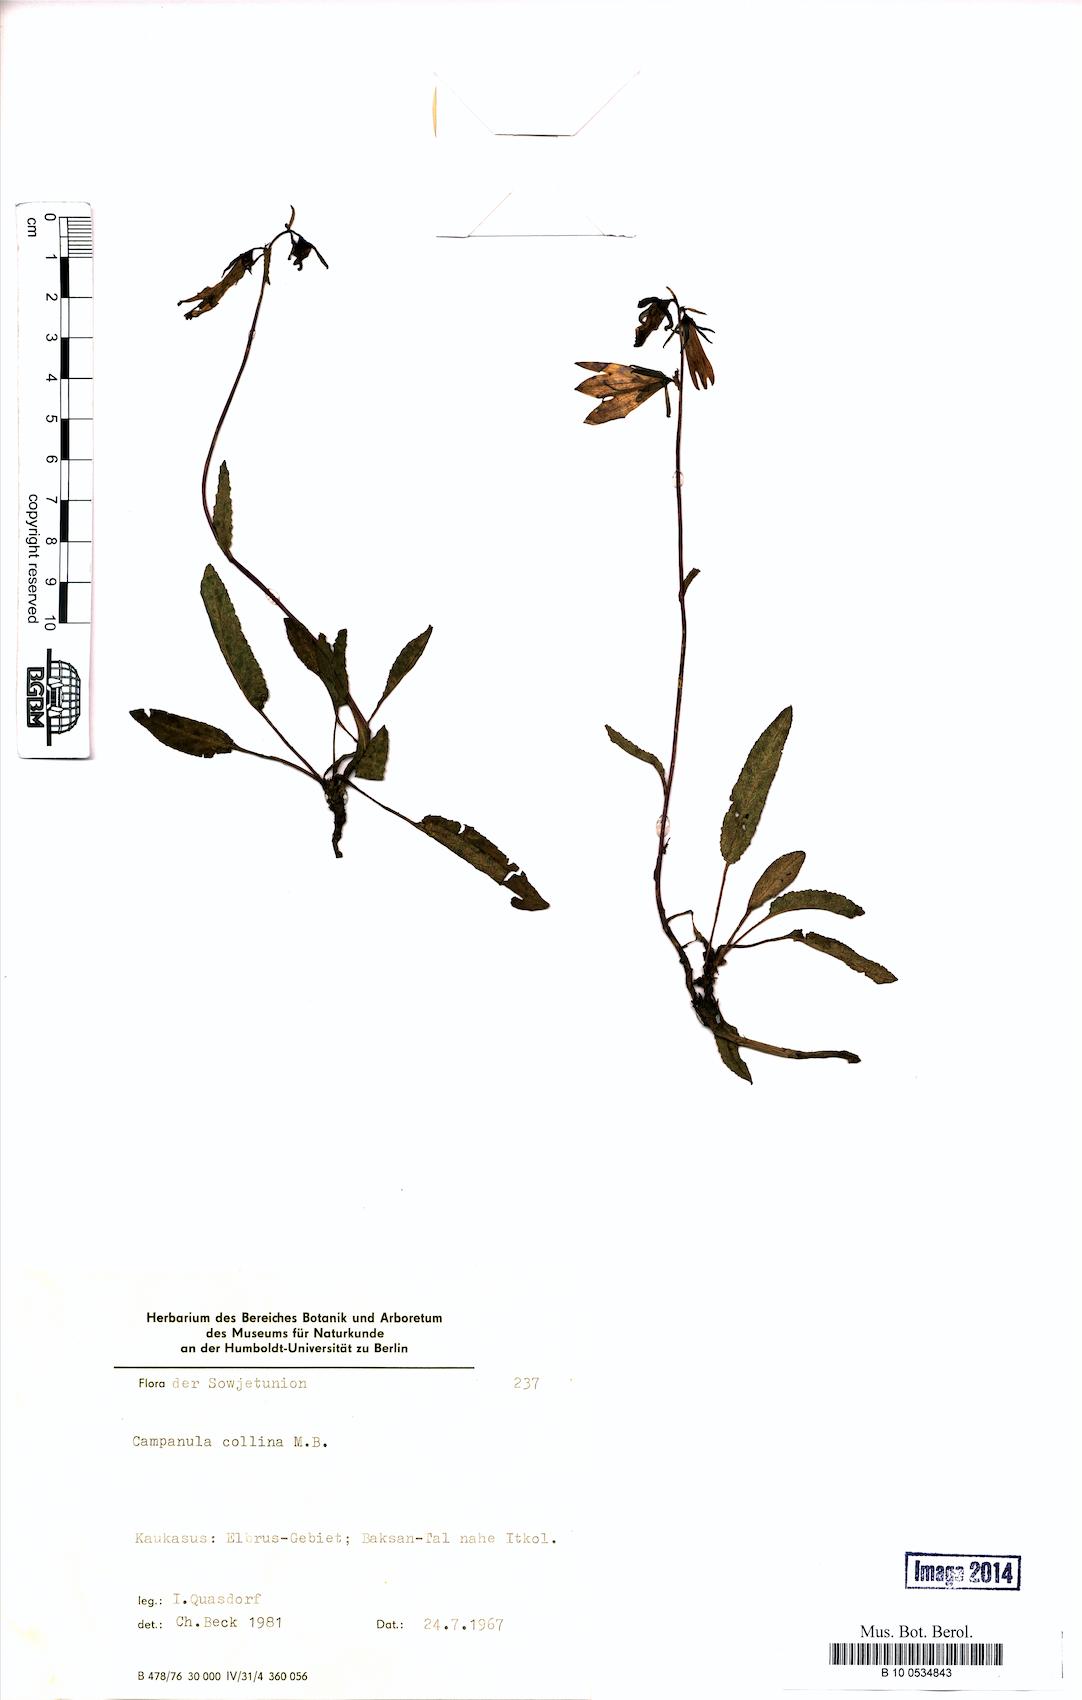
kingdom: Plantae
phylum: Tracheophyta
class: Magnoliopsida
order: Asterales
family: Campanulaceae
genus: Campanula
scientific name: Campanula collina
